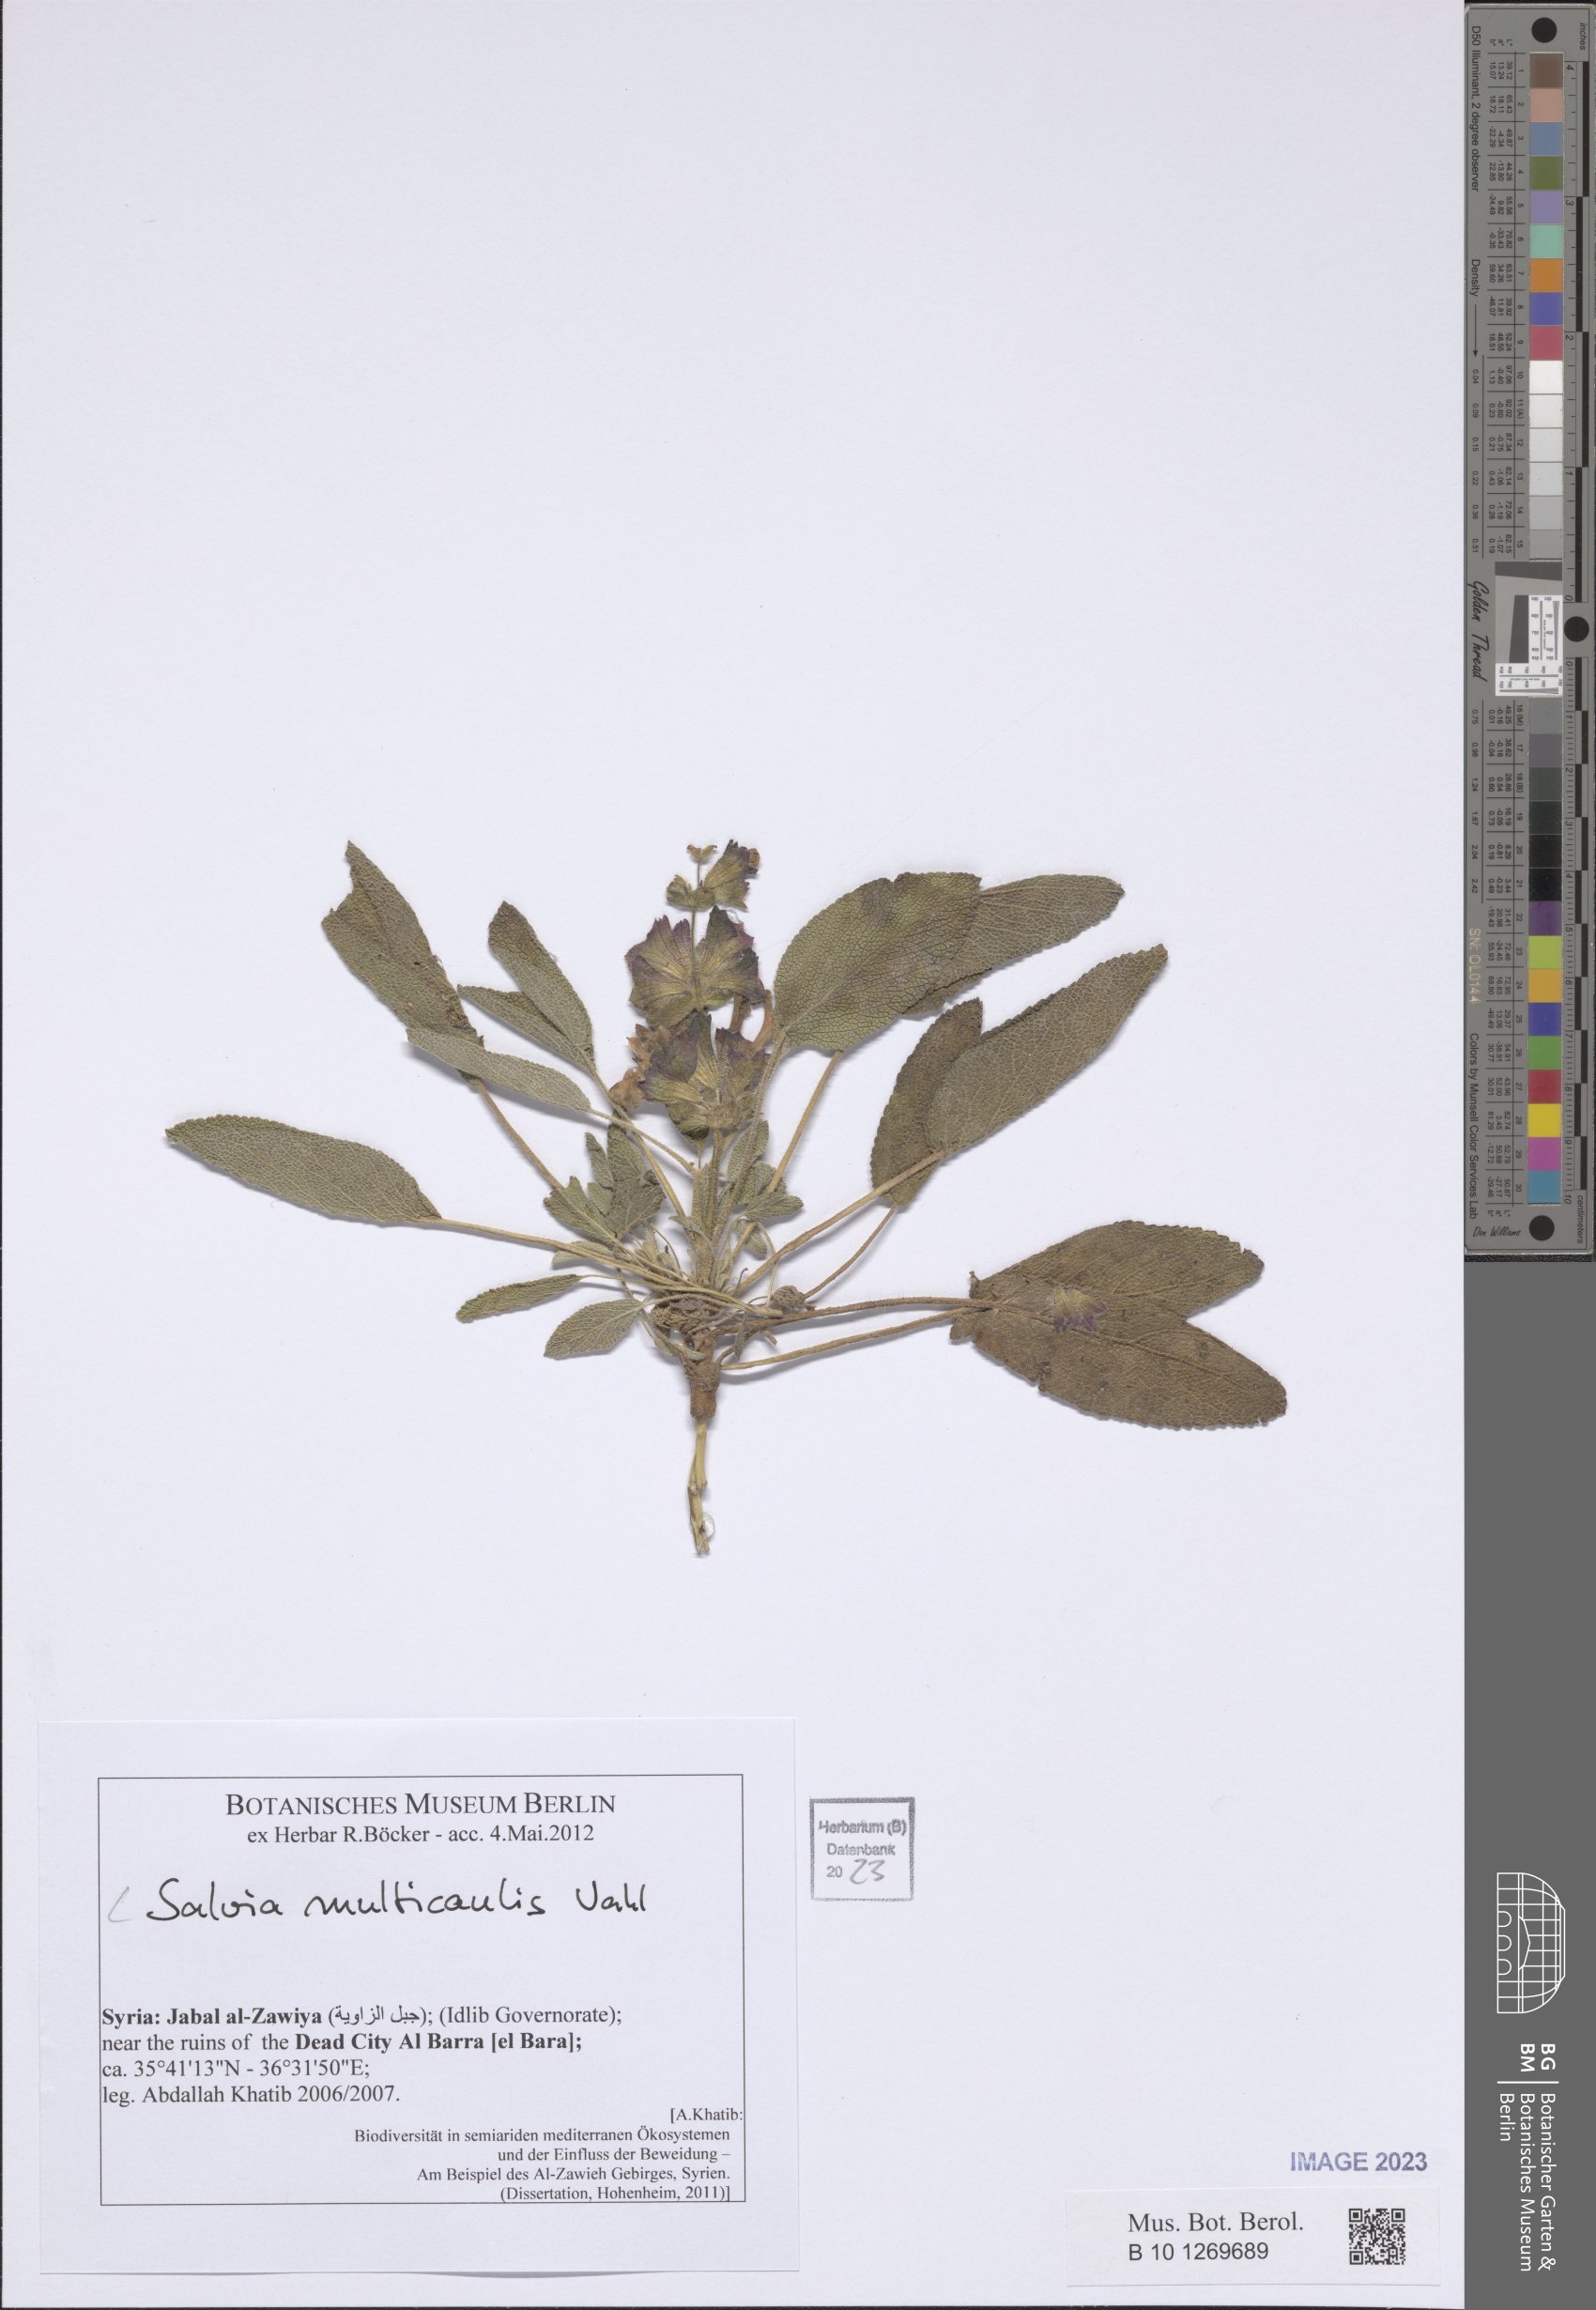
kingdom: Plantae
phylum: Tracheophyta
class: Magnoliopsida
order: Lamiales
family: Lamiaceae
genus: Salvia
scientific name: Salvia multicaulis
